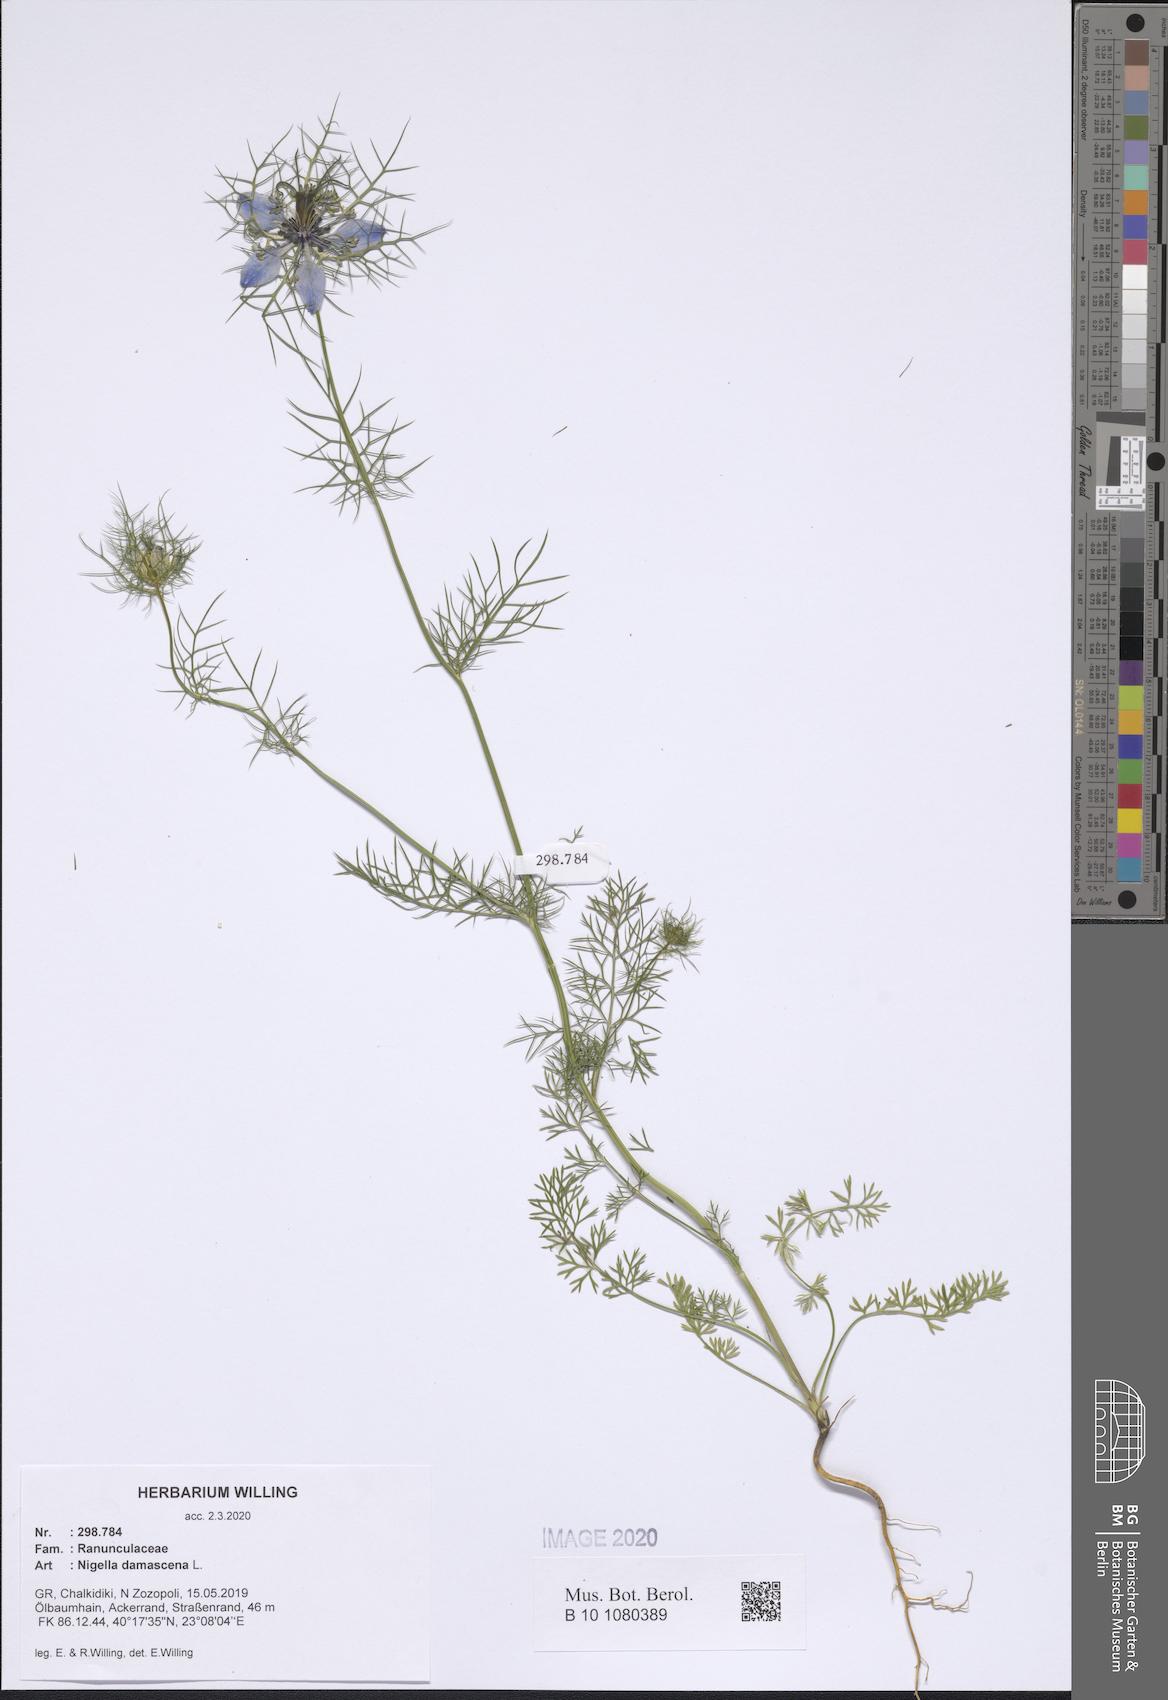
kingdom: Plantae
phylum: Tracheophyta
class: Magnoliopsida
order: Ranunculales
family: Ranunculaceae
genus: Nigella
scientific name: Nigella damascena
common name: Love-in-a-mist
